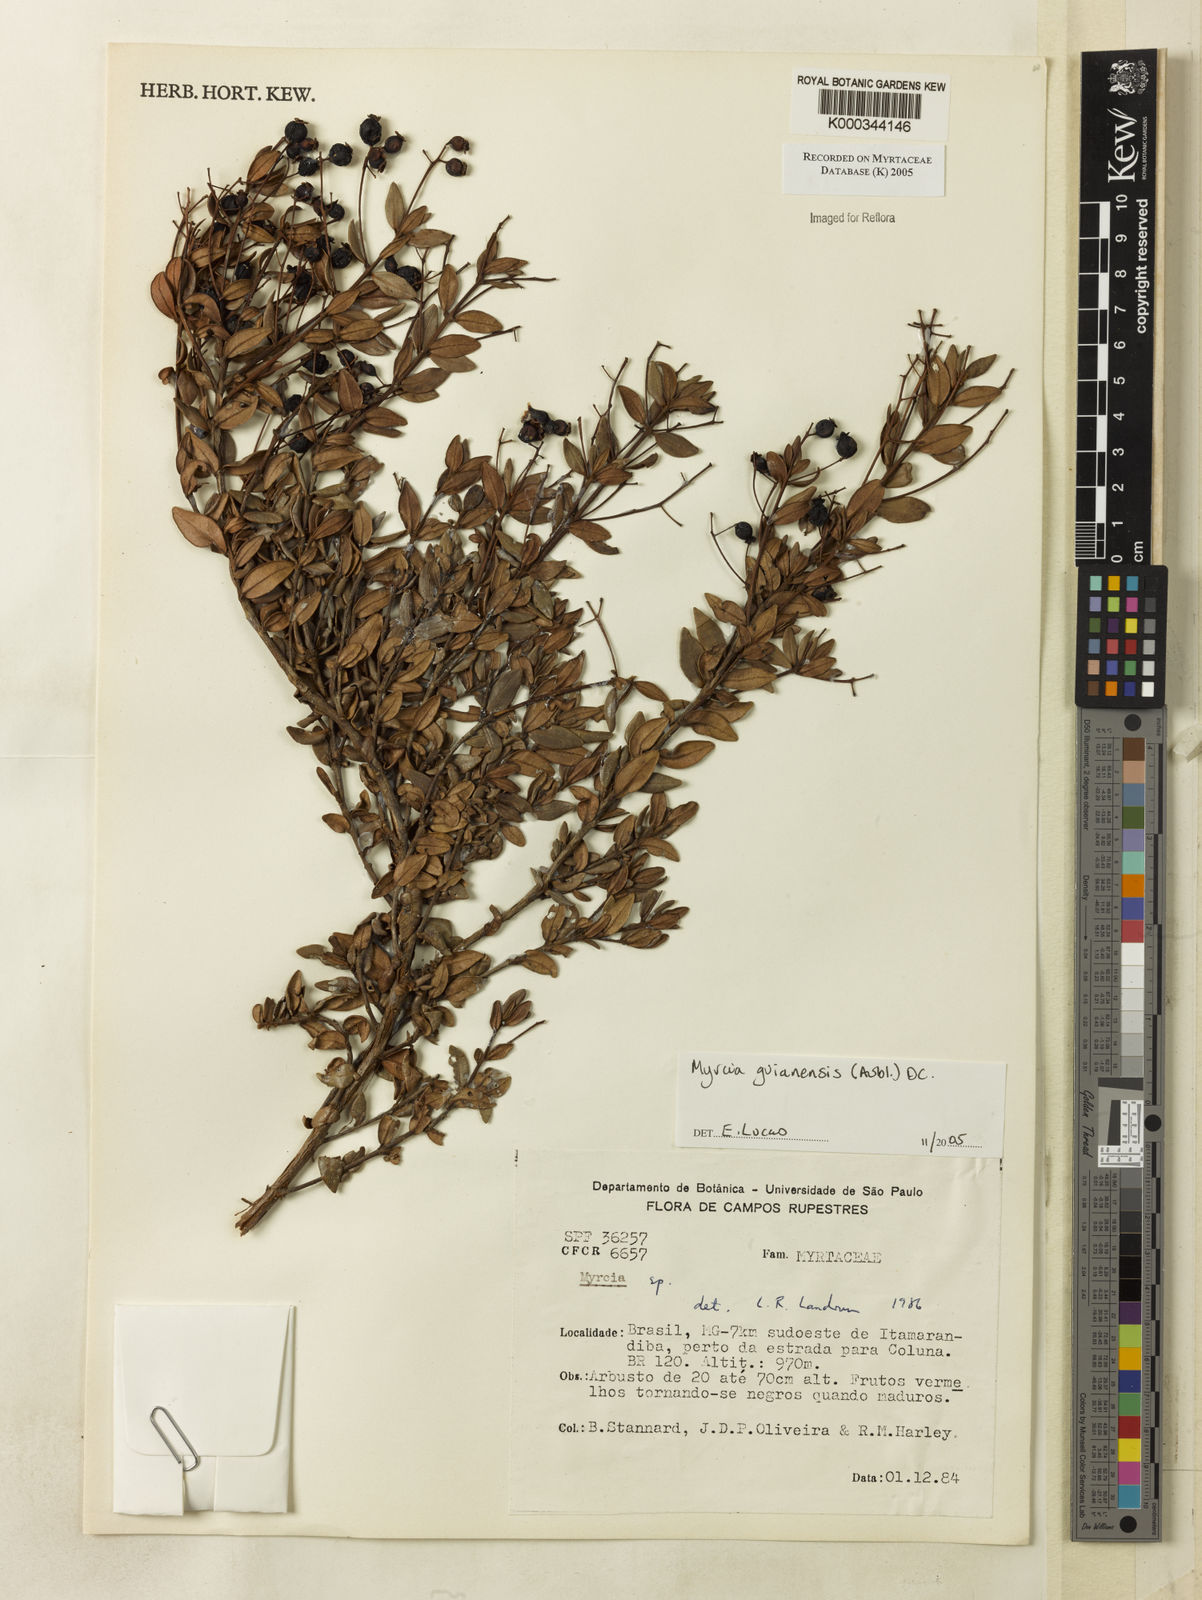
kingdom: Plantae
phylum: Tracheophyta
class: Magnoliopsida
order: Myrtales
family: Myrtaceae
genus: Myrcia
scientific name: Myrcia guianensis
